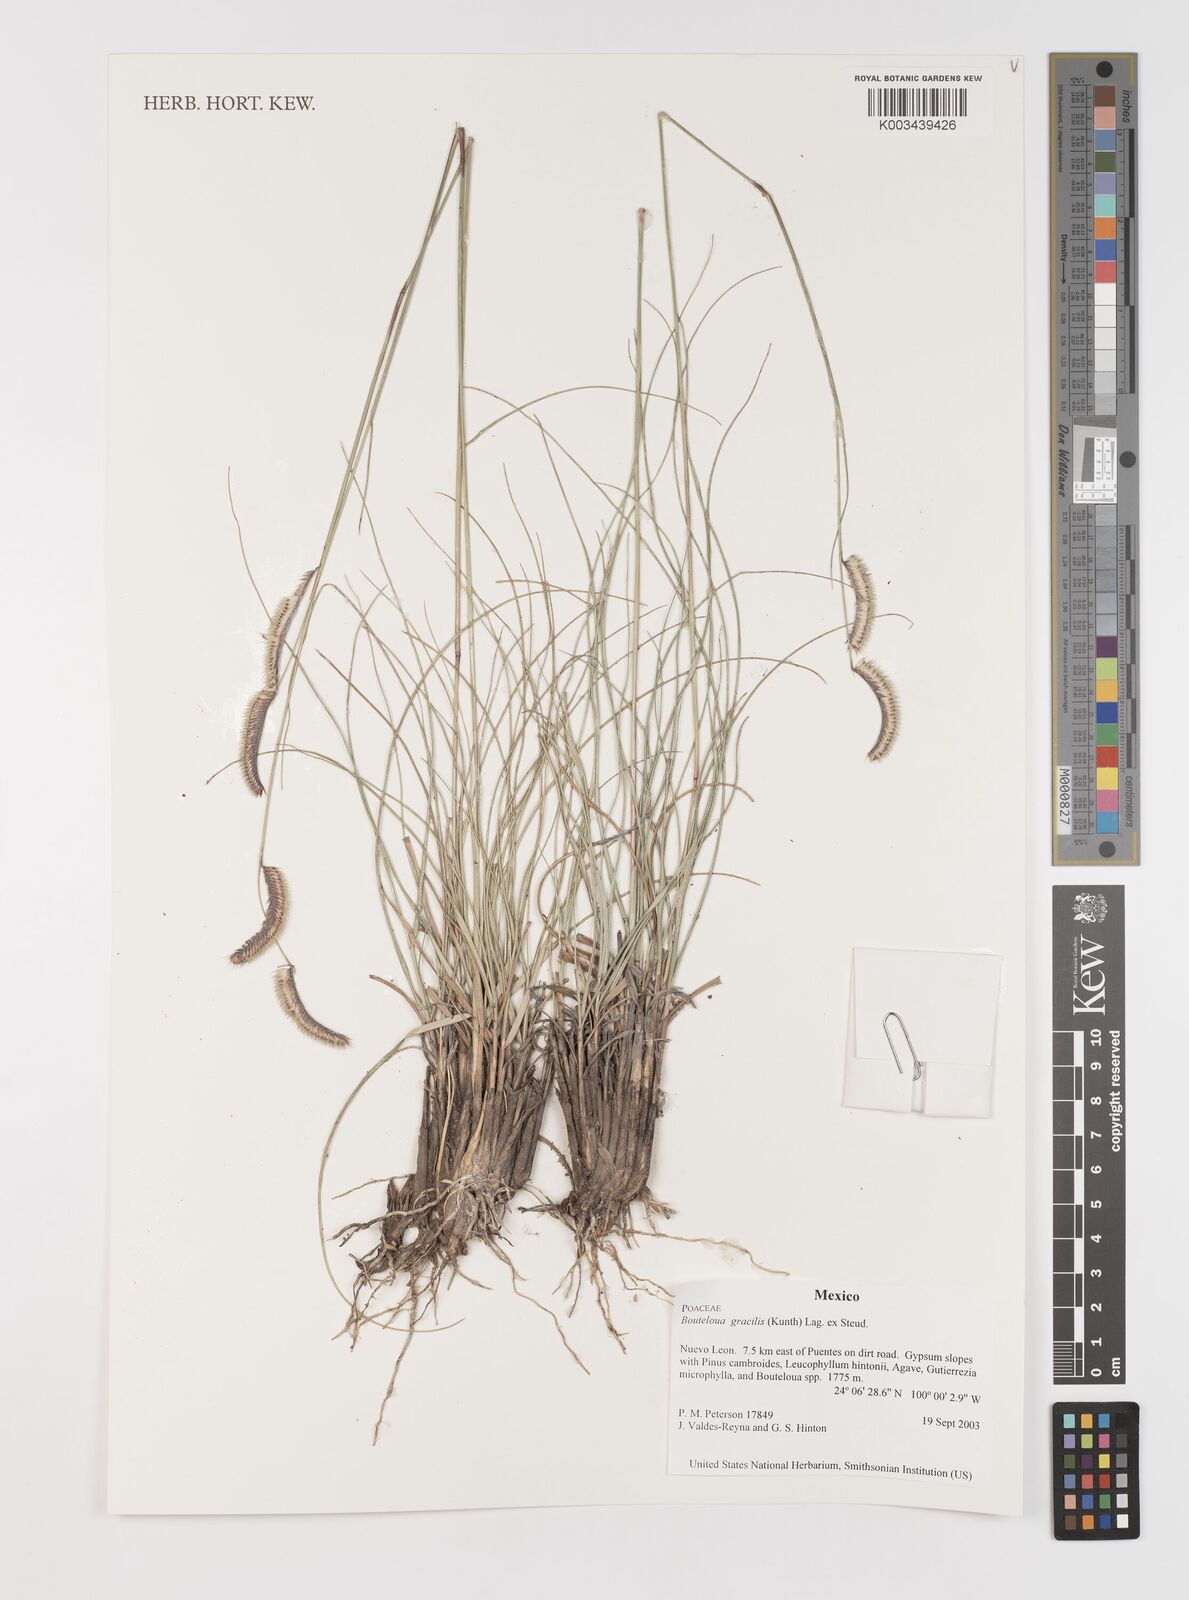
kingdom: Plantae
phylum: Tracheophyta
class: Liliopsida
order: Poales
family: Poaceae
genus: Bouteloua
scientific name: Bouteloua aristidoides
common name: Needle grama
